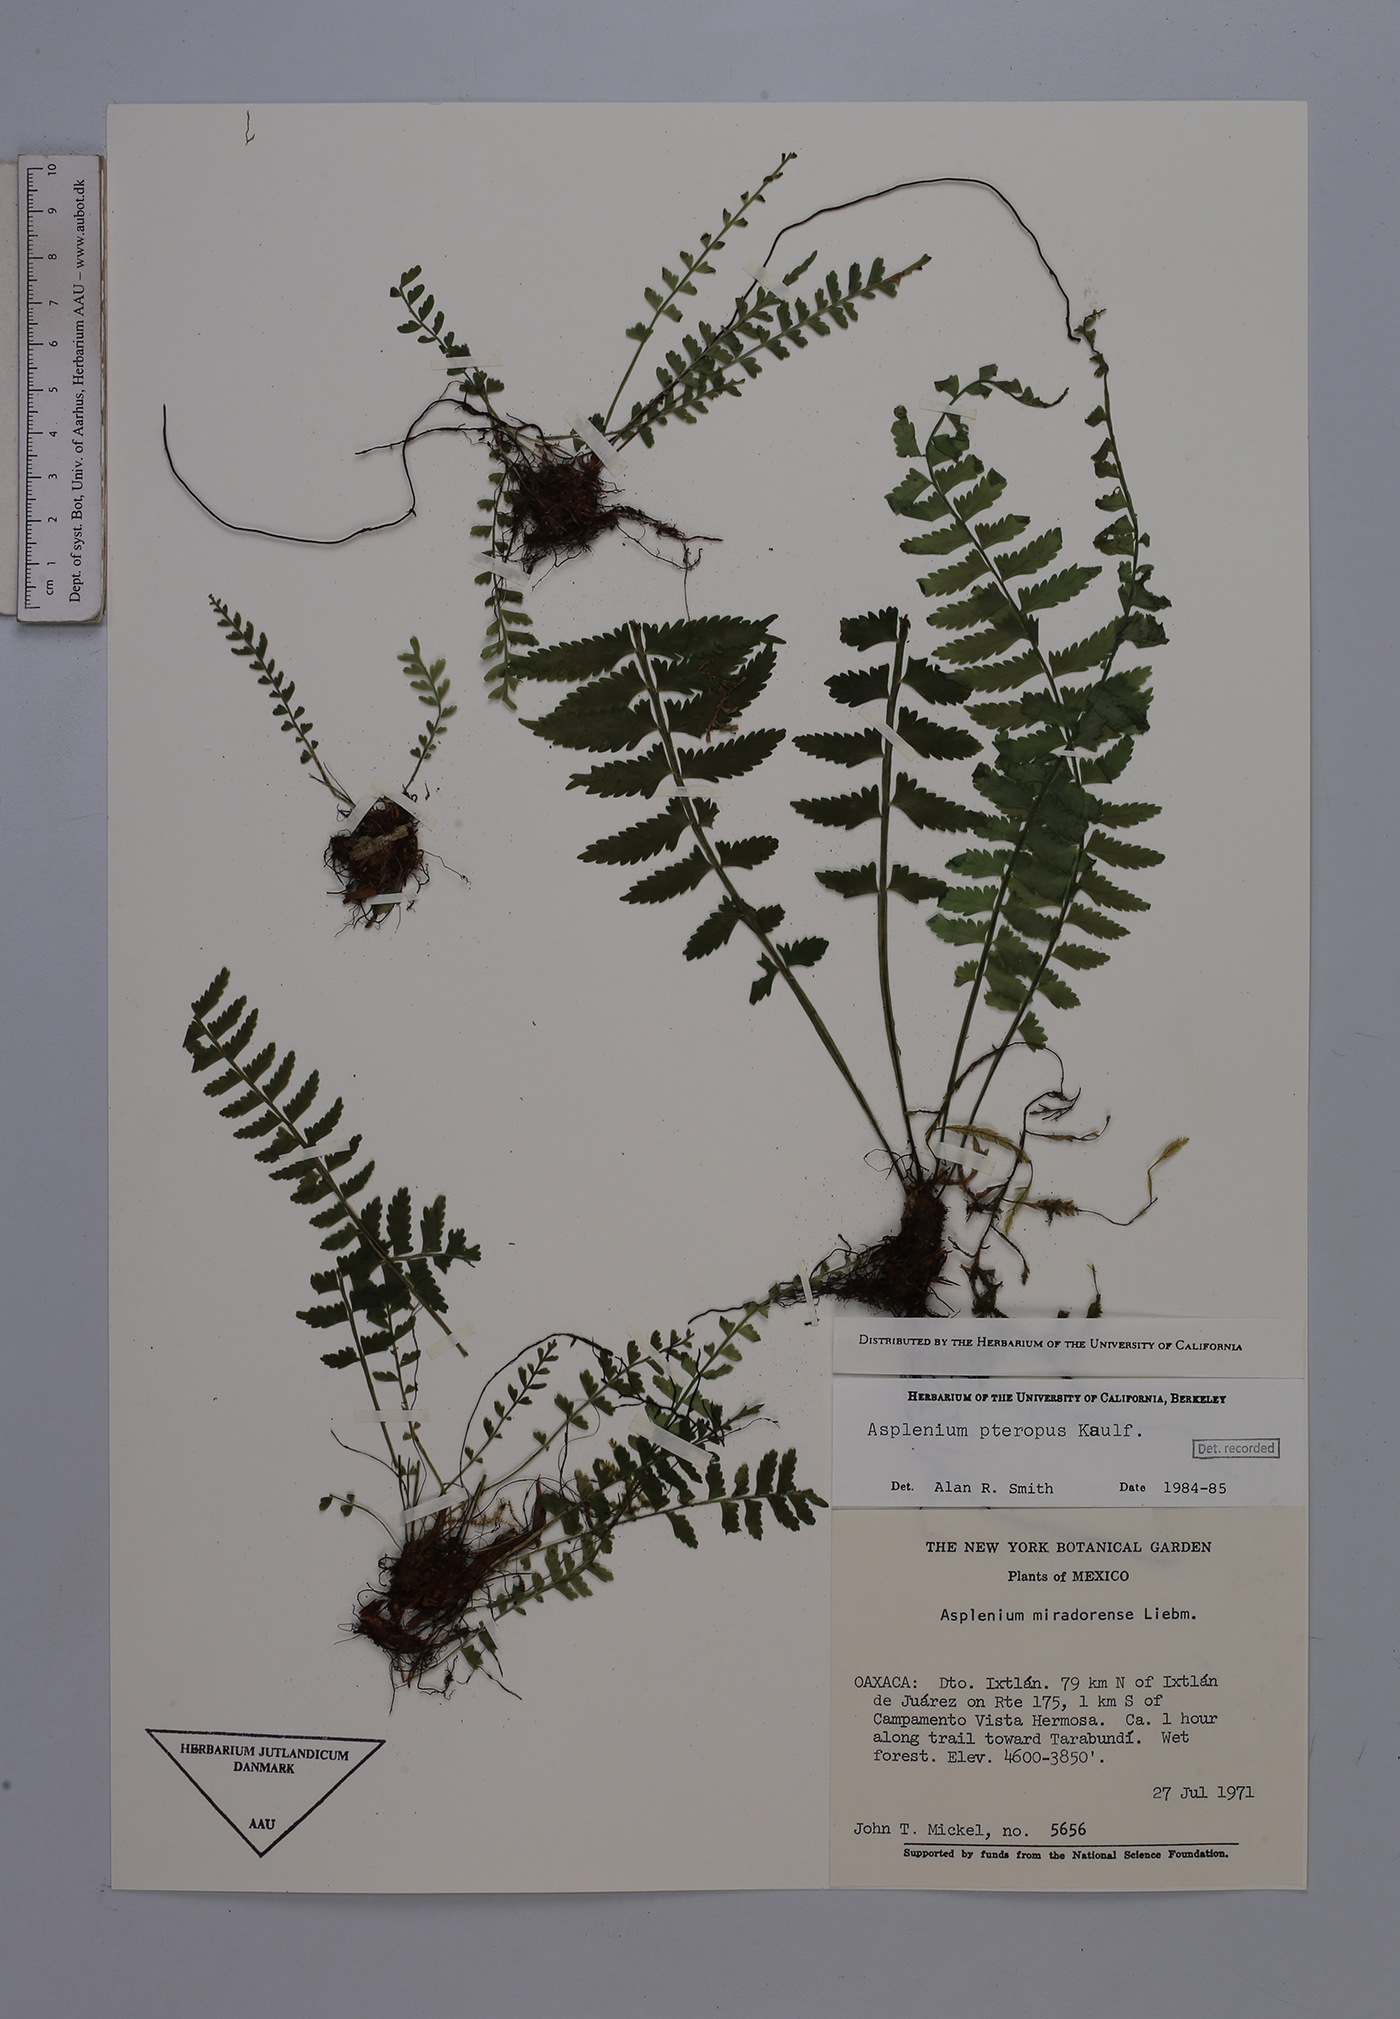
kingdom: Plantae
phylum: Tracheophyta
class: Polypodiopsida
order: Polypodiales
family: Aspleniaceae
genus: Asplenium
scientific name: Asplenium pteropus
